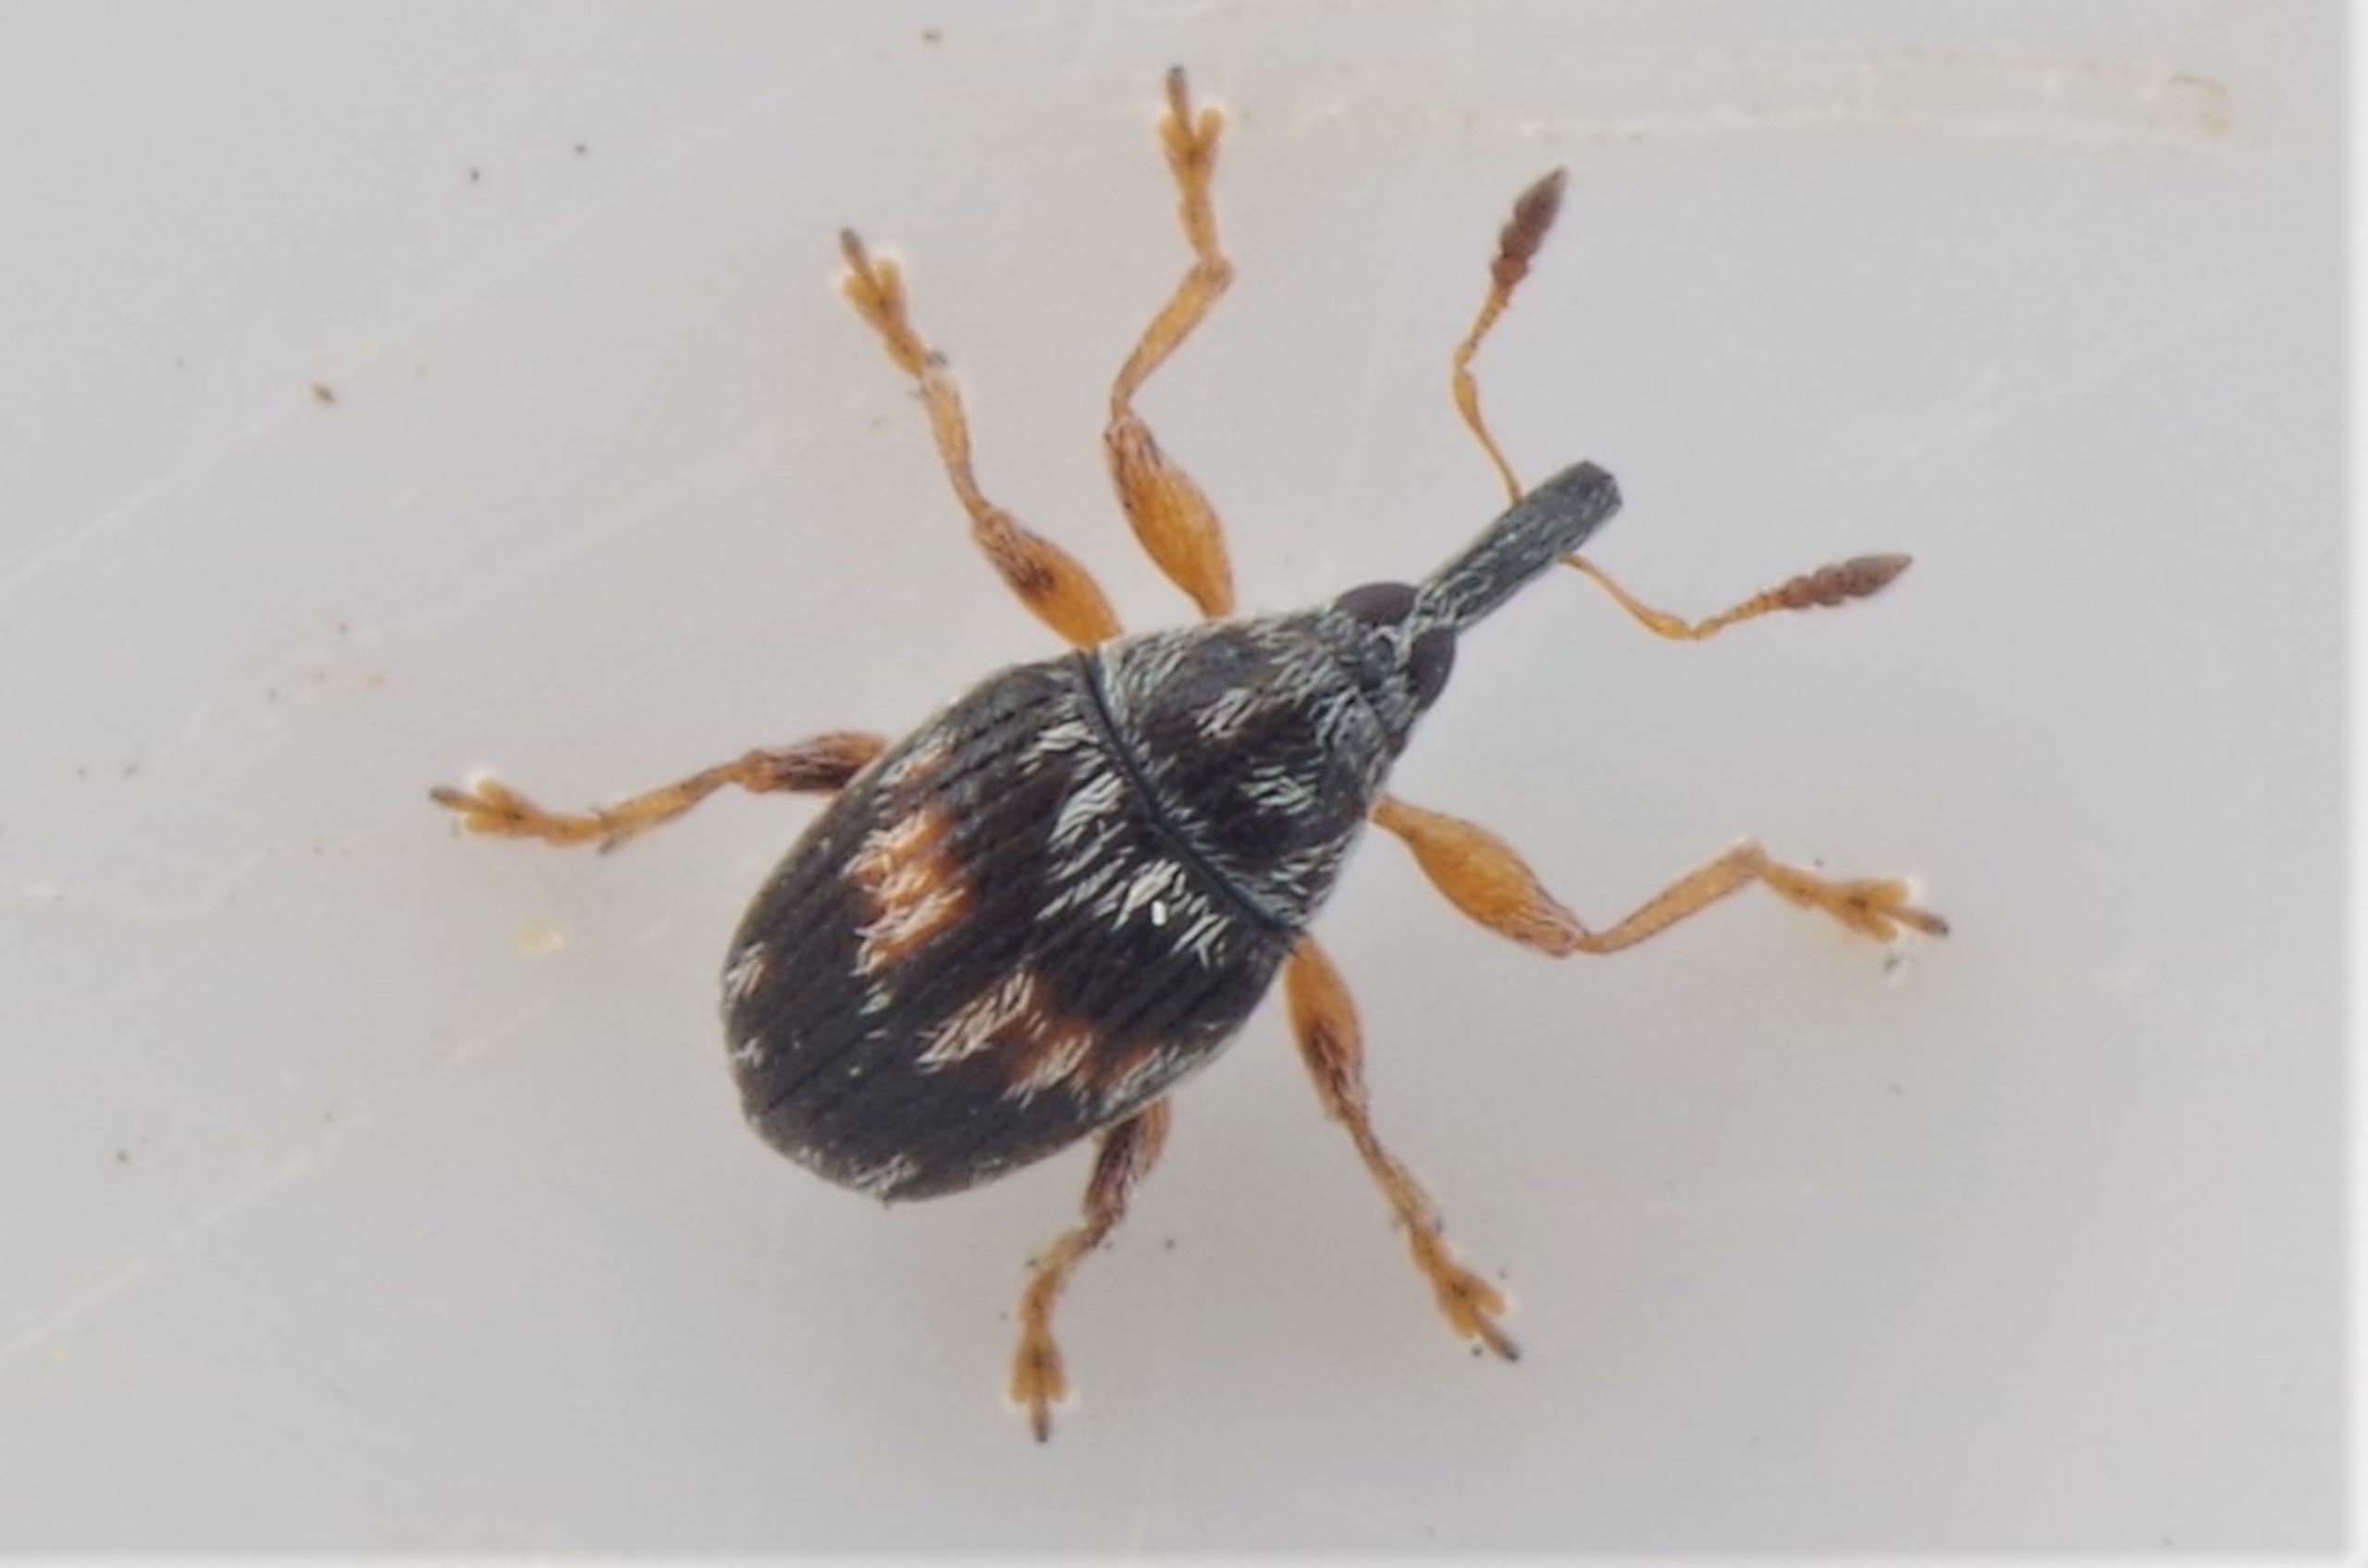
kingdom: Animalia
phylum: Arthropoda
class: Insecta
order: Coleoptera
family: Brentidae
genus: Nanophyes
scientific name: Nanophyes marmoratus
